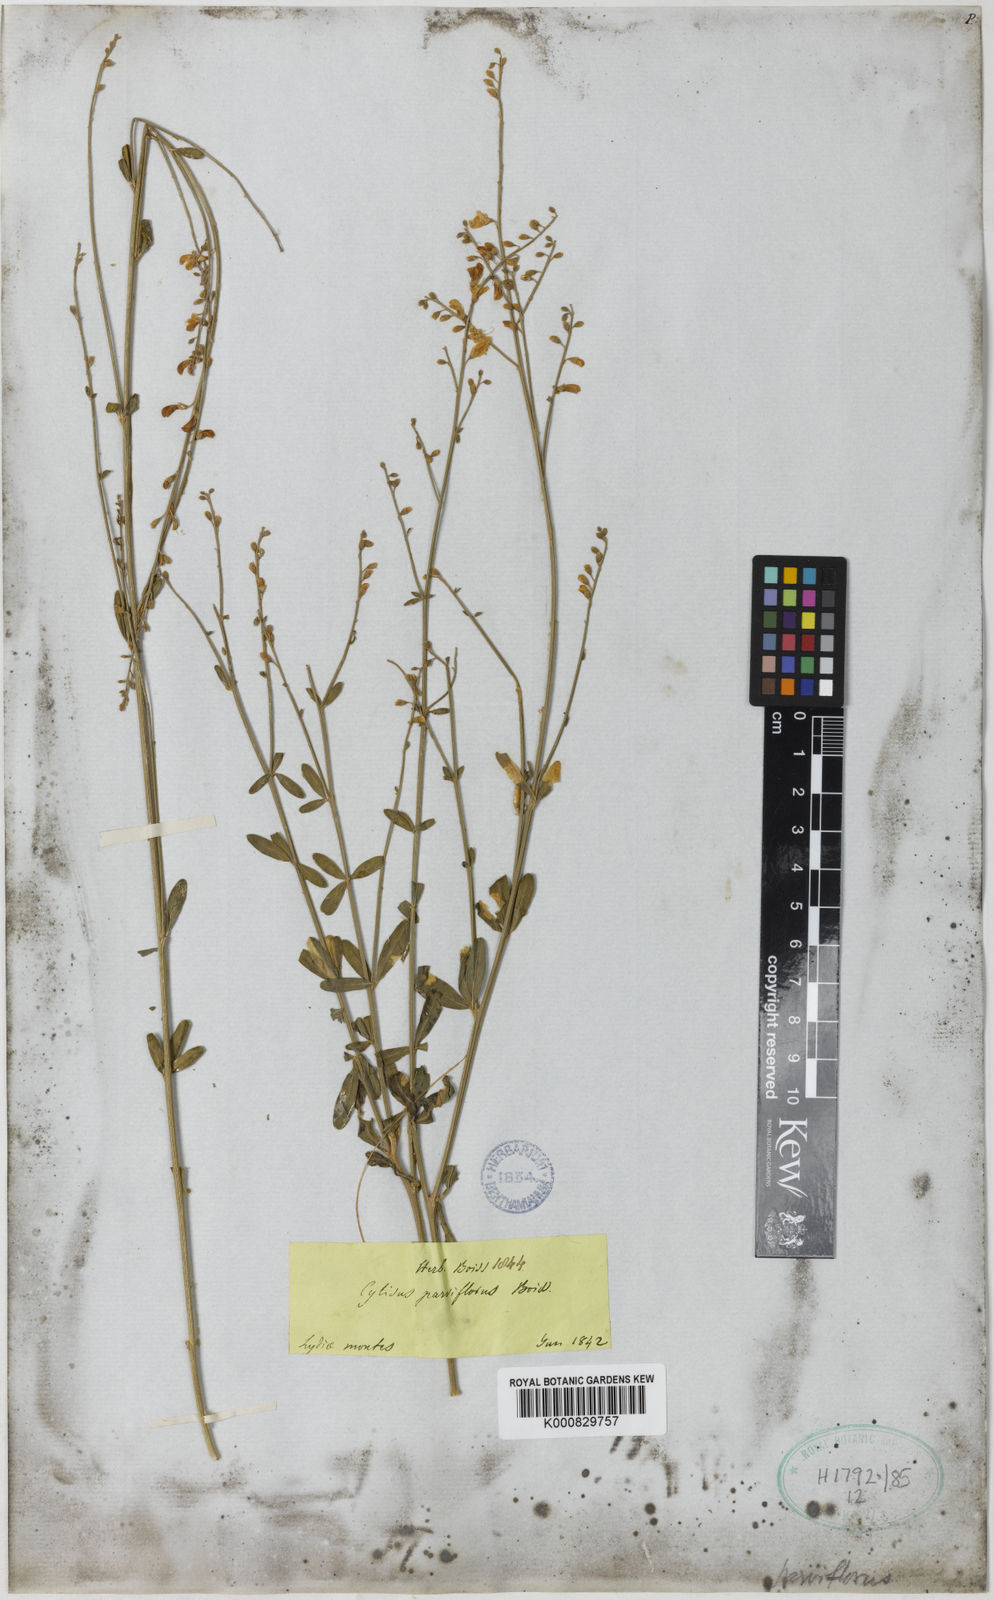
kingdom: Plantae
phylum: Tracheophyta
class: Magnoliopsida
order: Fabales
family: Fabaceae
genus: Gonocytisus
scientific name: Gonocytisus angulatus
